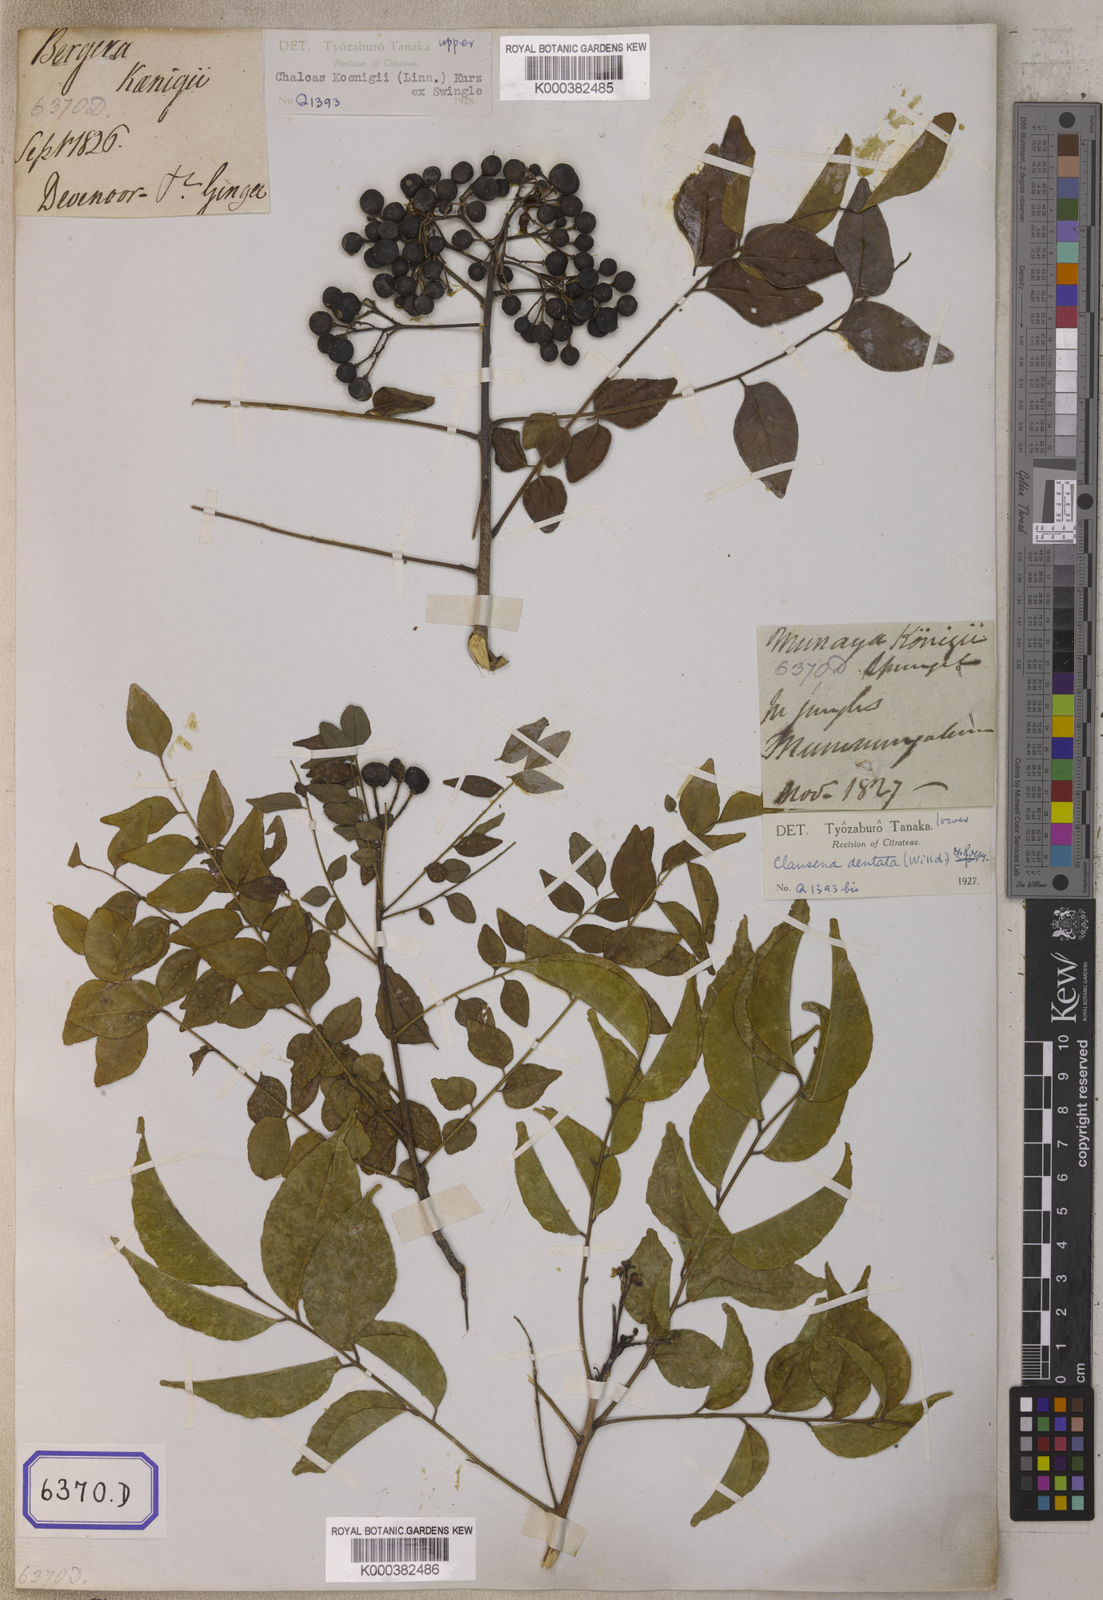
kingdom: Plantae
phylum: Tracheophyta
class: Magnoliopsida
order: Sapindales
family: Rutaceae
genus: Clausena
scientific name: Clausena anisata
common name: Horsewood
